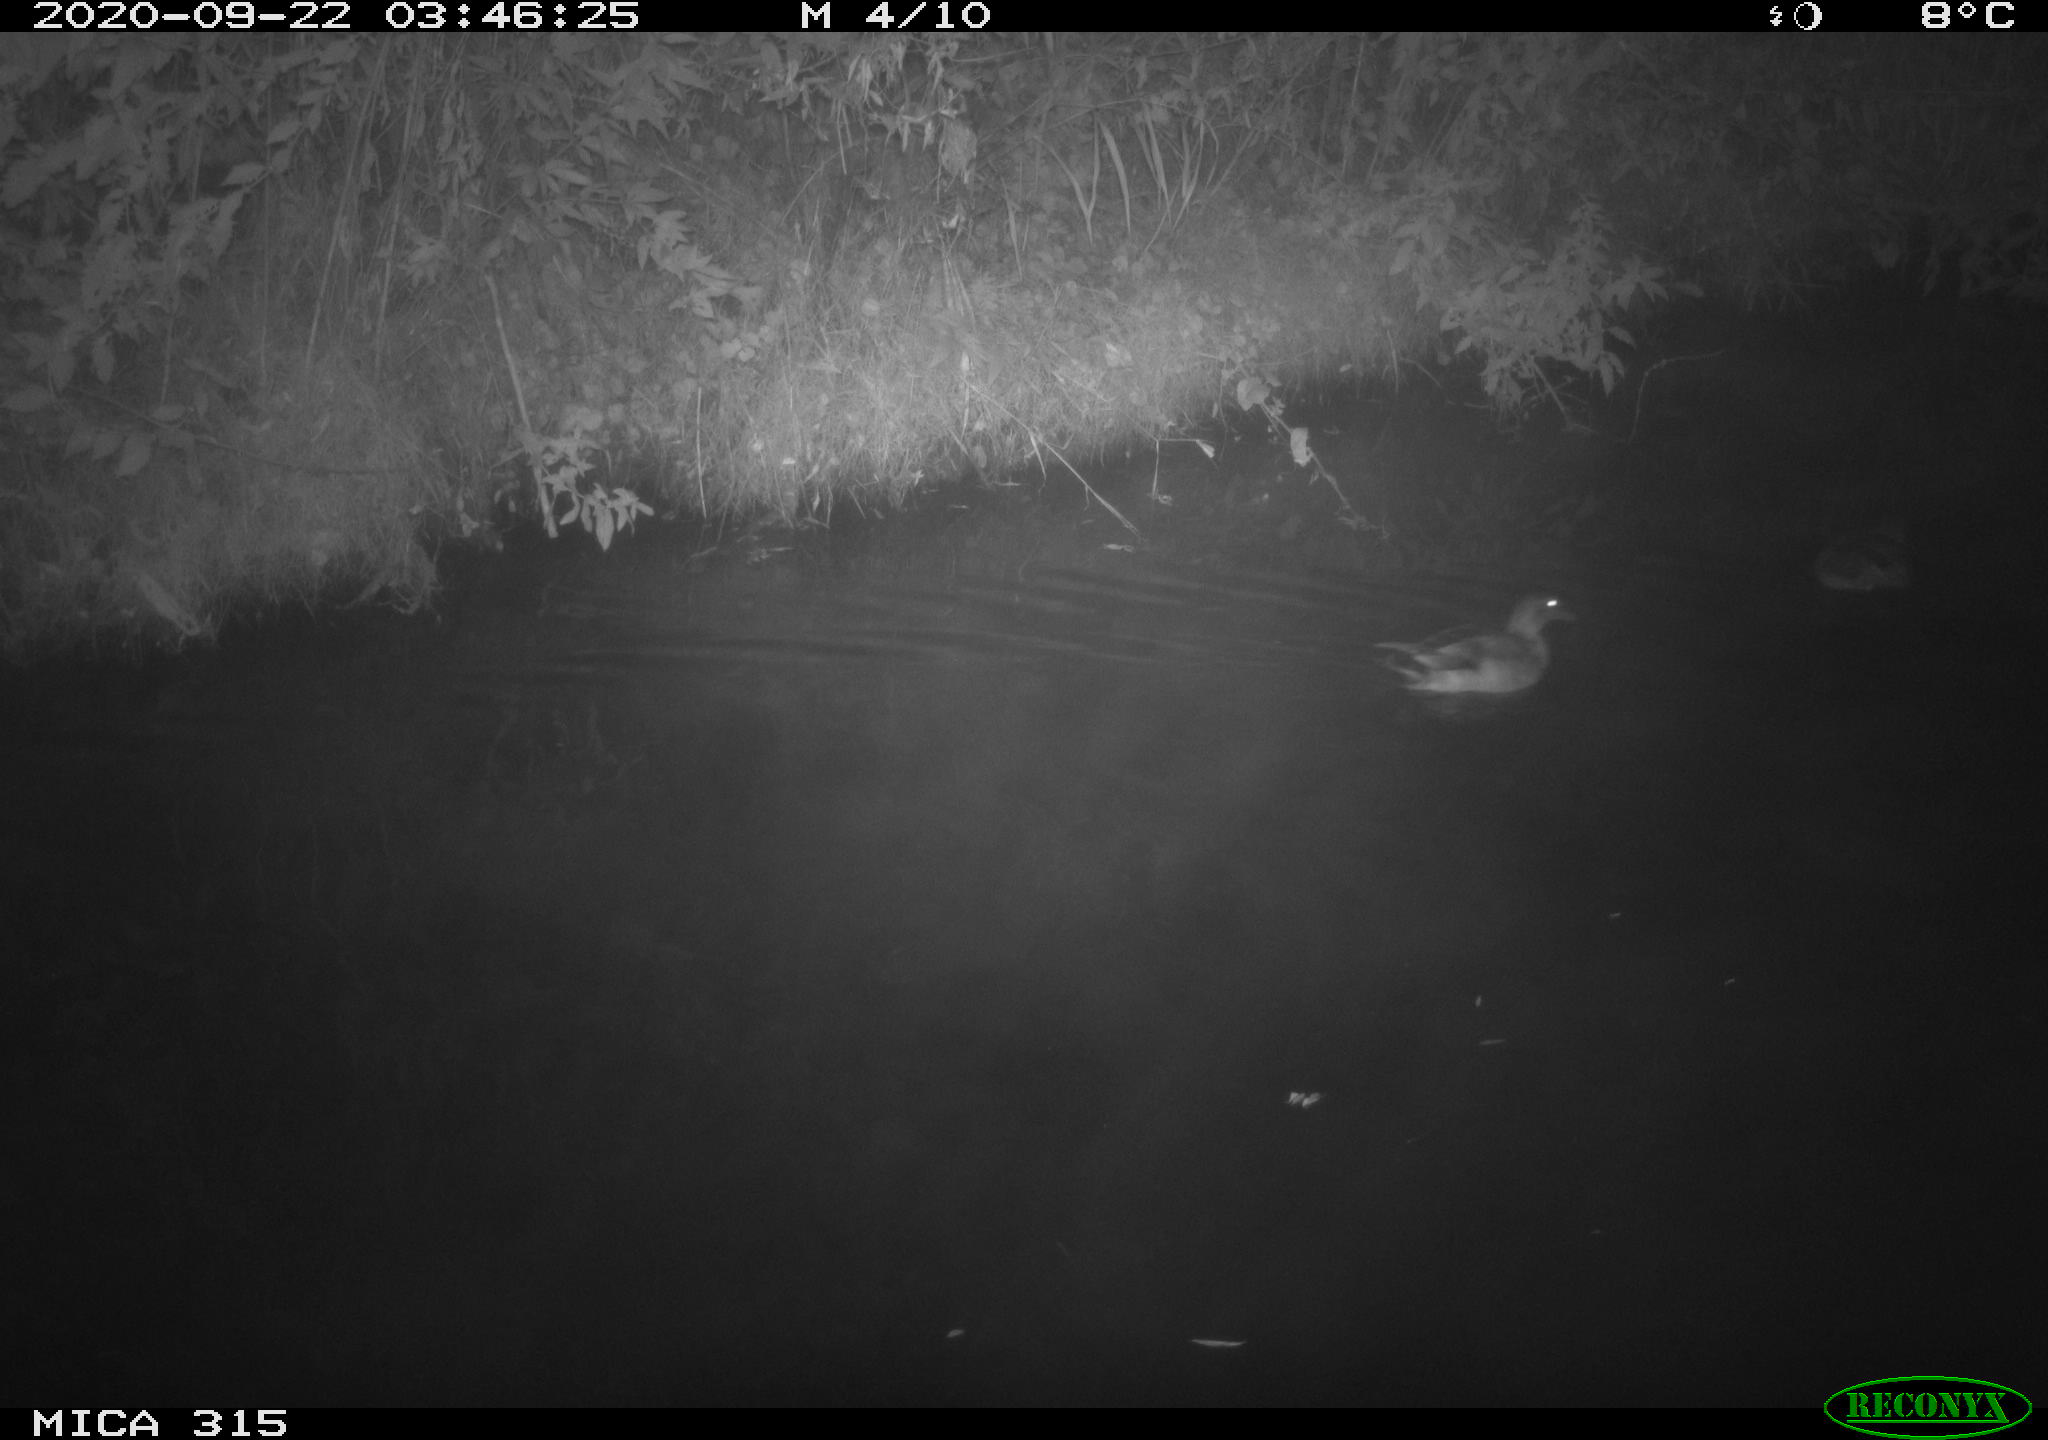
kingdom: Animalia
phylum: Chordata
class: Aves
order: Anseriformes
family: Anatidae
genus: Anas
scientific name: Anas platyrhynchos
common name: Mallard
